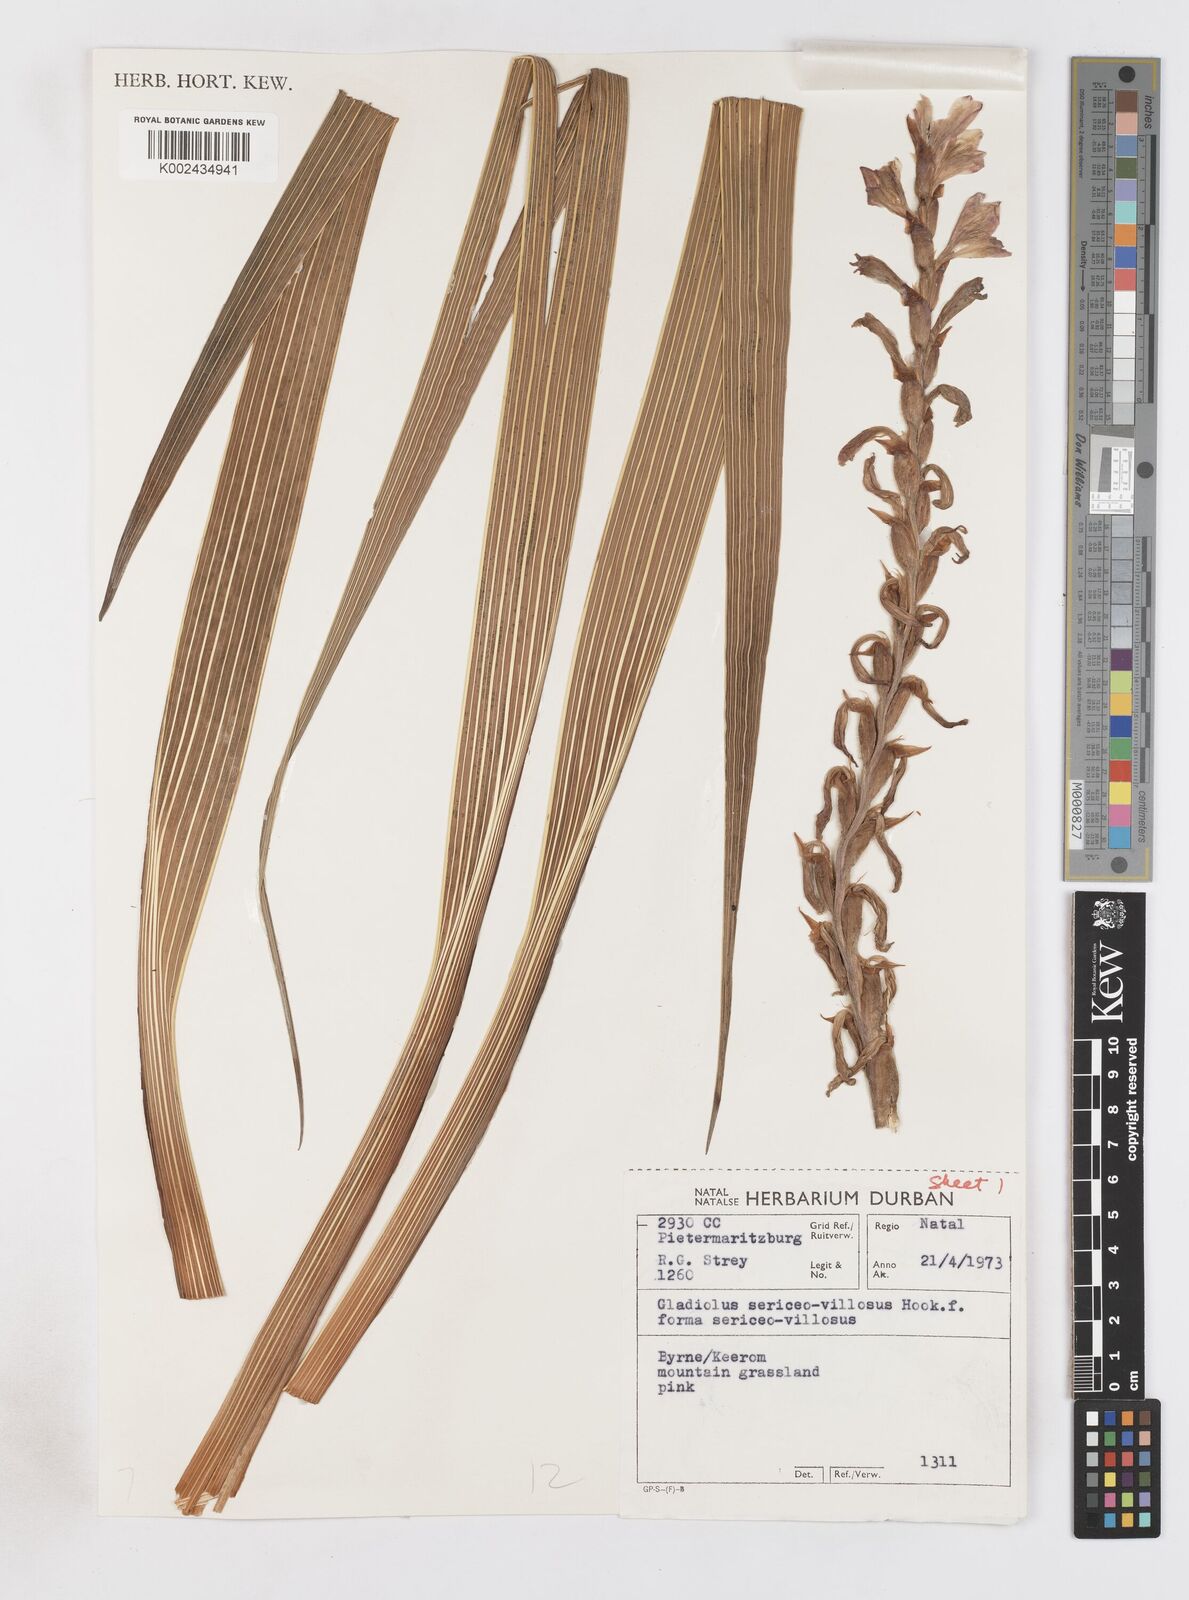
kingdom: Plantae
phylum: Tracheophyta
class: Liliopsida
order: Asparagales
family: Iridaceae
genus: Gladiolus
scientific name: Gladiolus sericeovillosus
